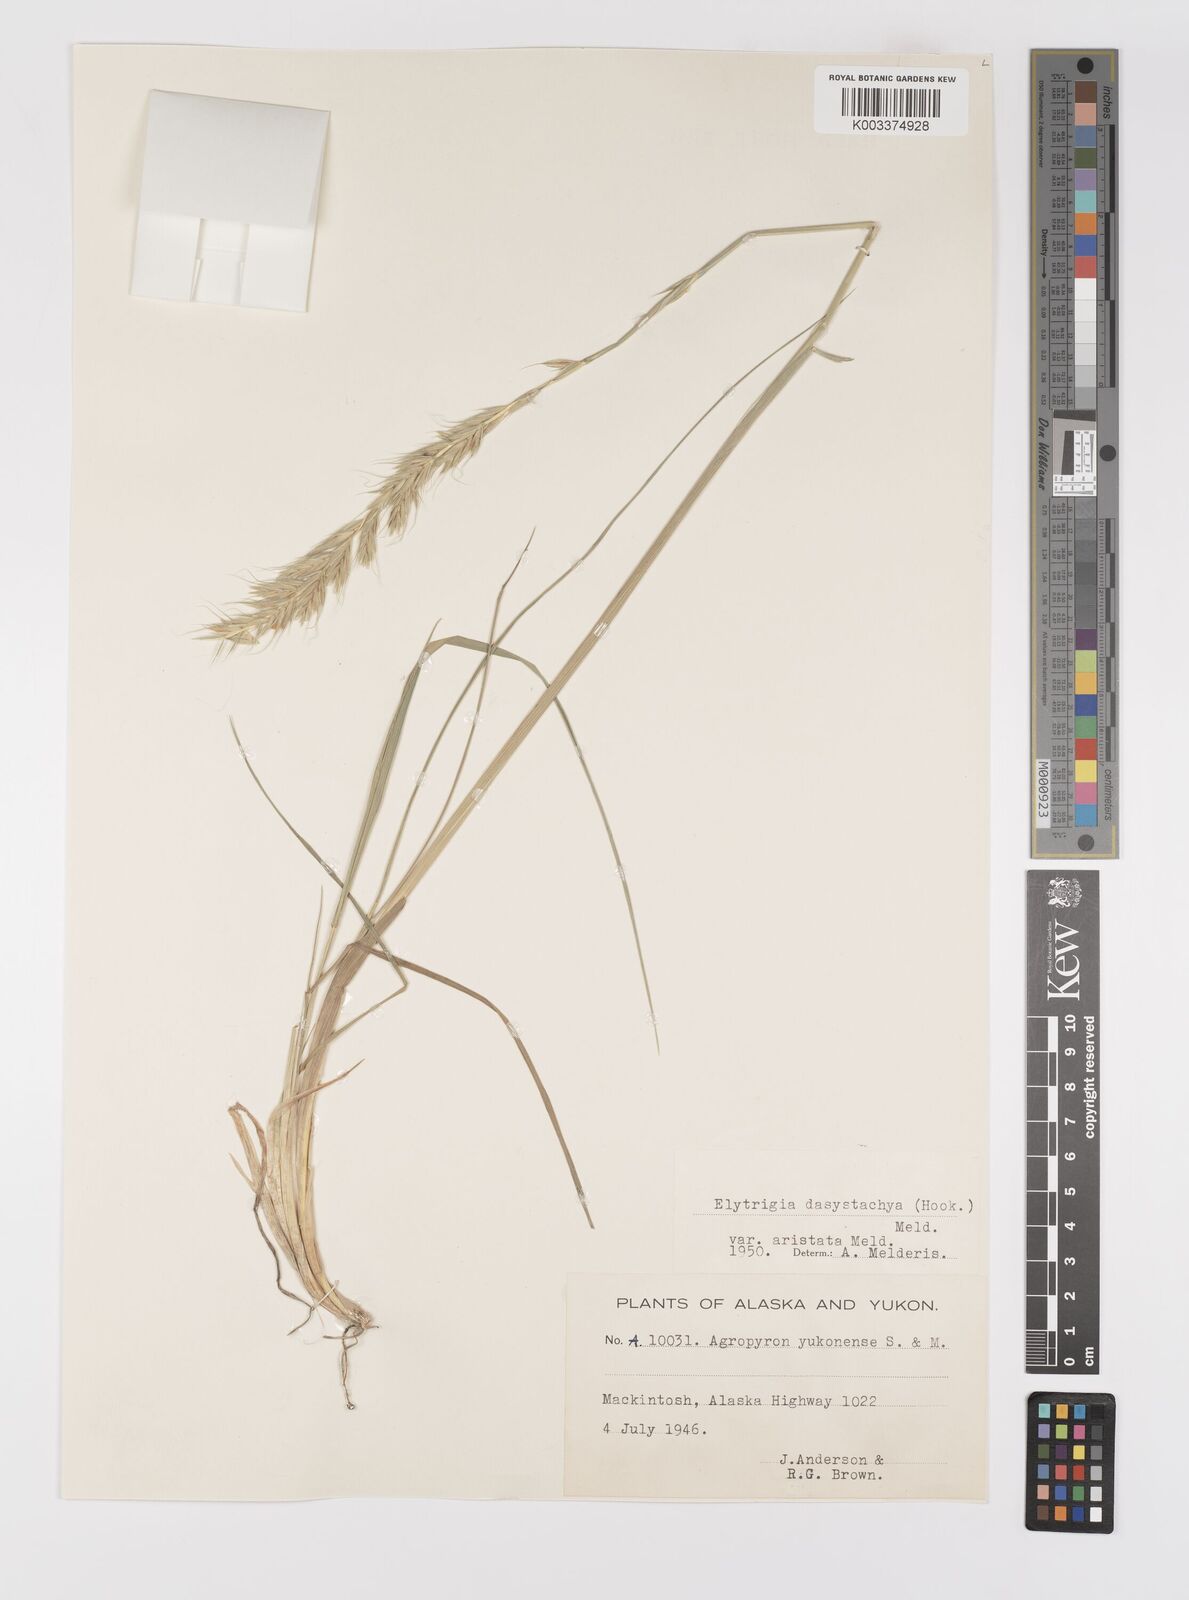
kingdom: Plantae
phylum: Tracheophyta
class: Liliopsida
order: Poales
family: Poaceae
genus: Elymus
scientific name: Elymus lanceolatus
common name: Thick-spike wheatgrass
